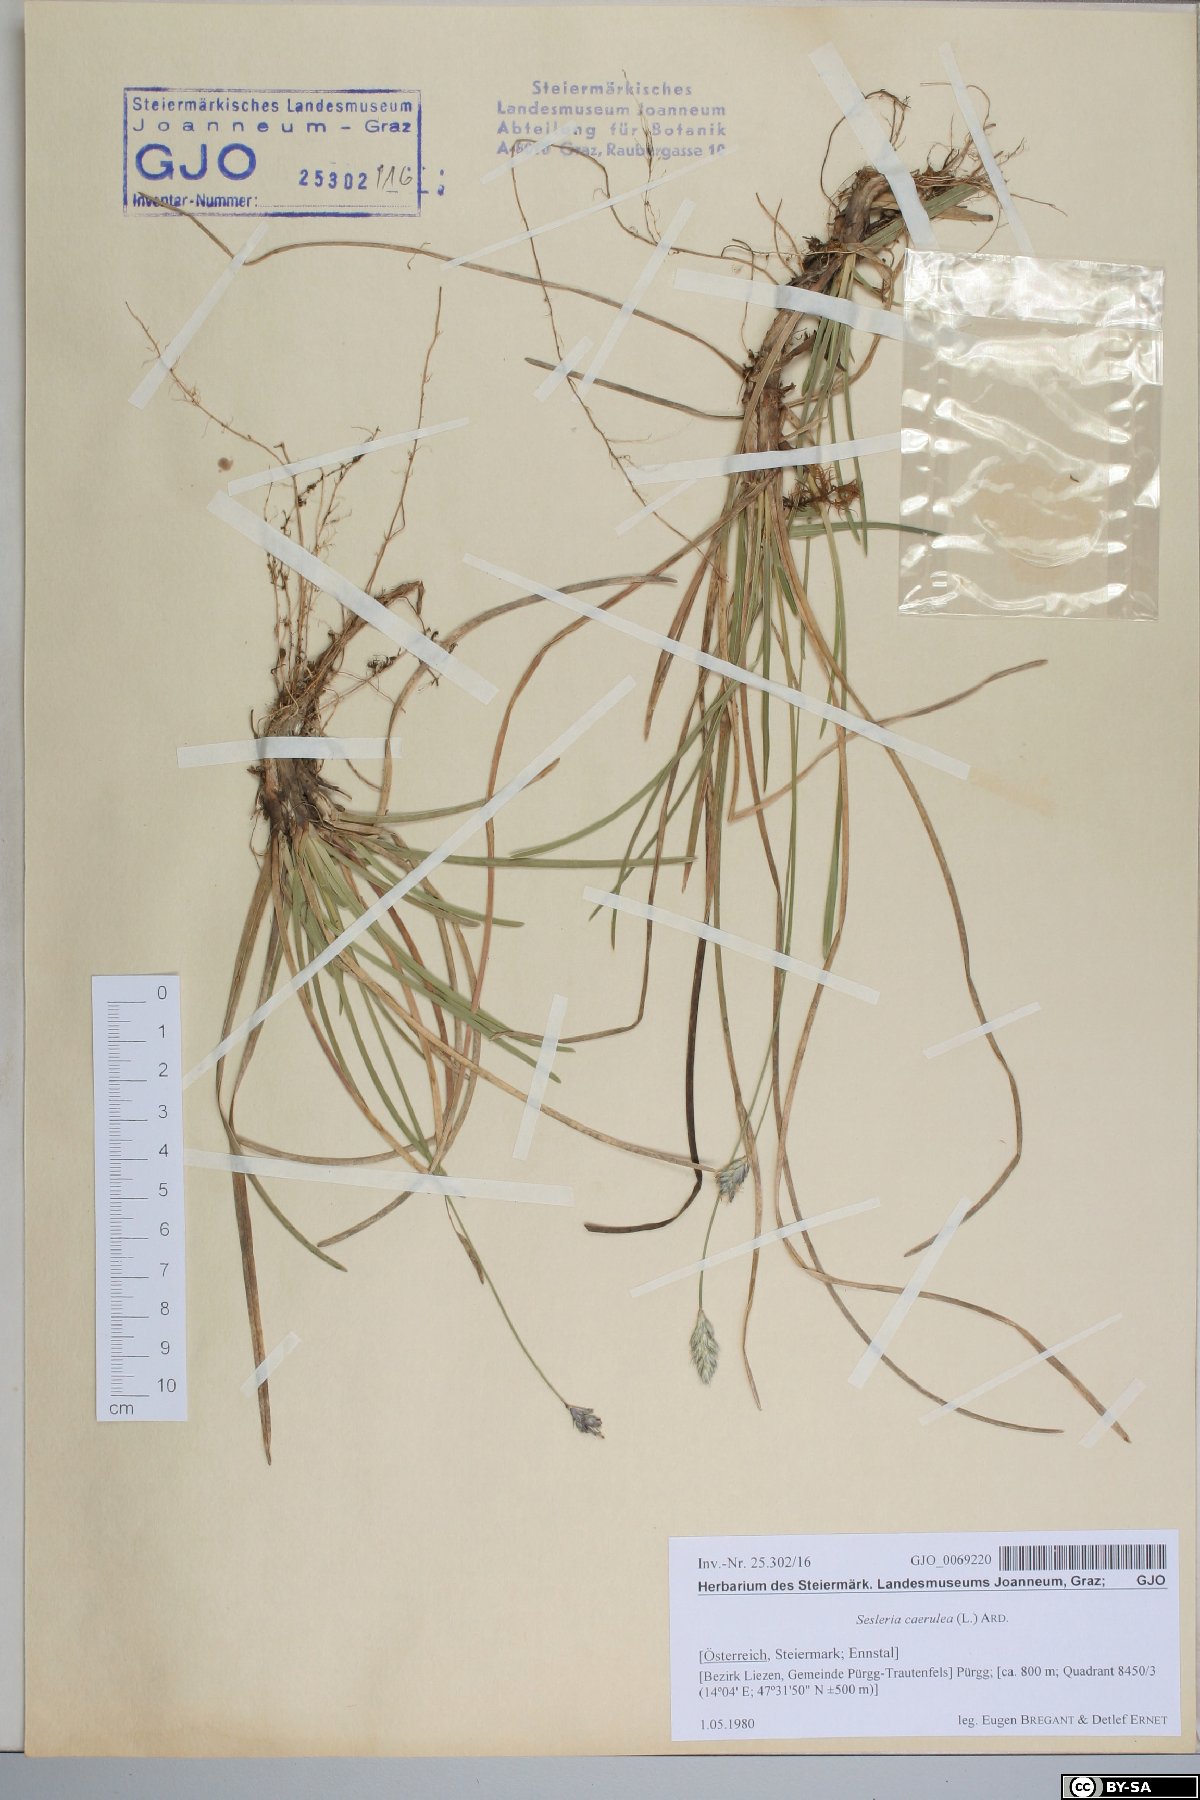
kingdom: Plantae
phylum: Tracheophyta
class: Liliopsida
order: Poales
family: Poaceae
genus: Sesleria
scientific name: Sesleria caerulea
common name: Blue moor-grass
